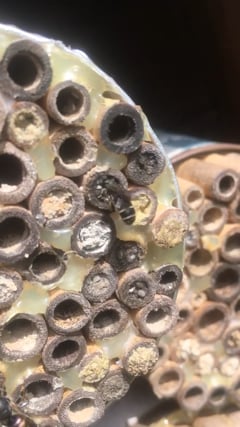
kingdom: Animalia
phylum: Arthropoda
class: Insecta
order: Hymenoptera
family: Megachilidae
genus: Heriades
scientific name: Heriades
